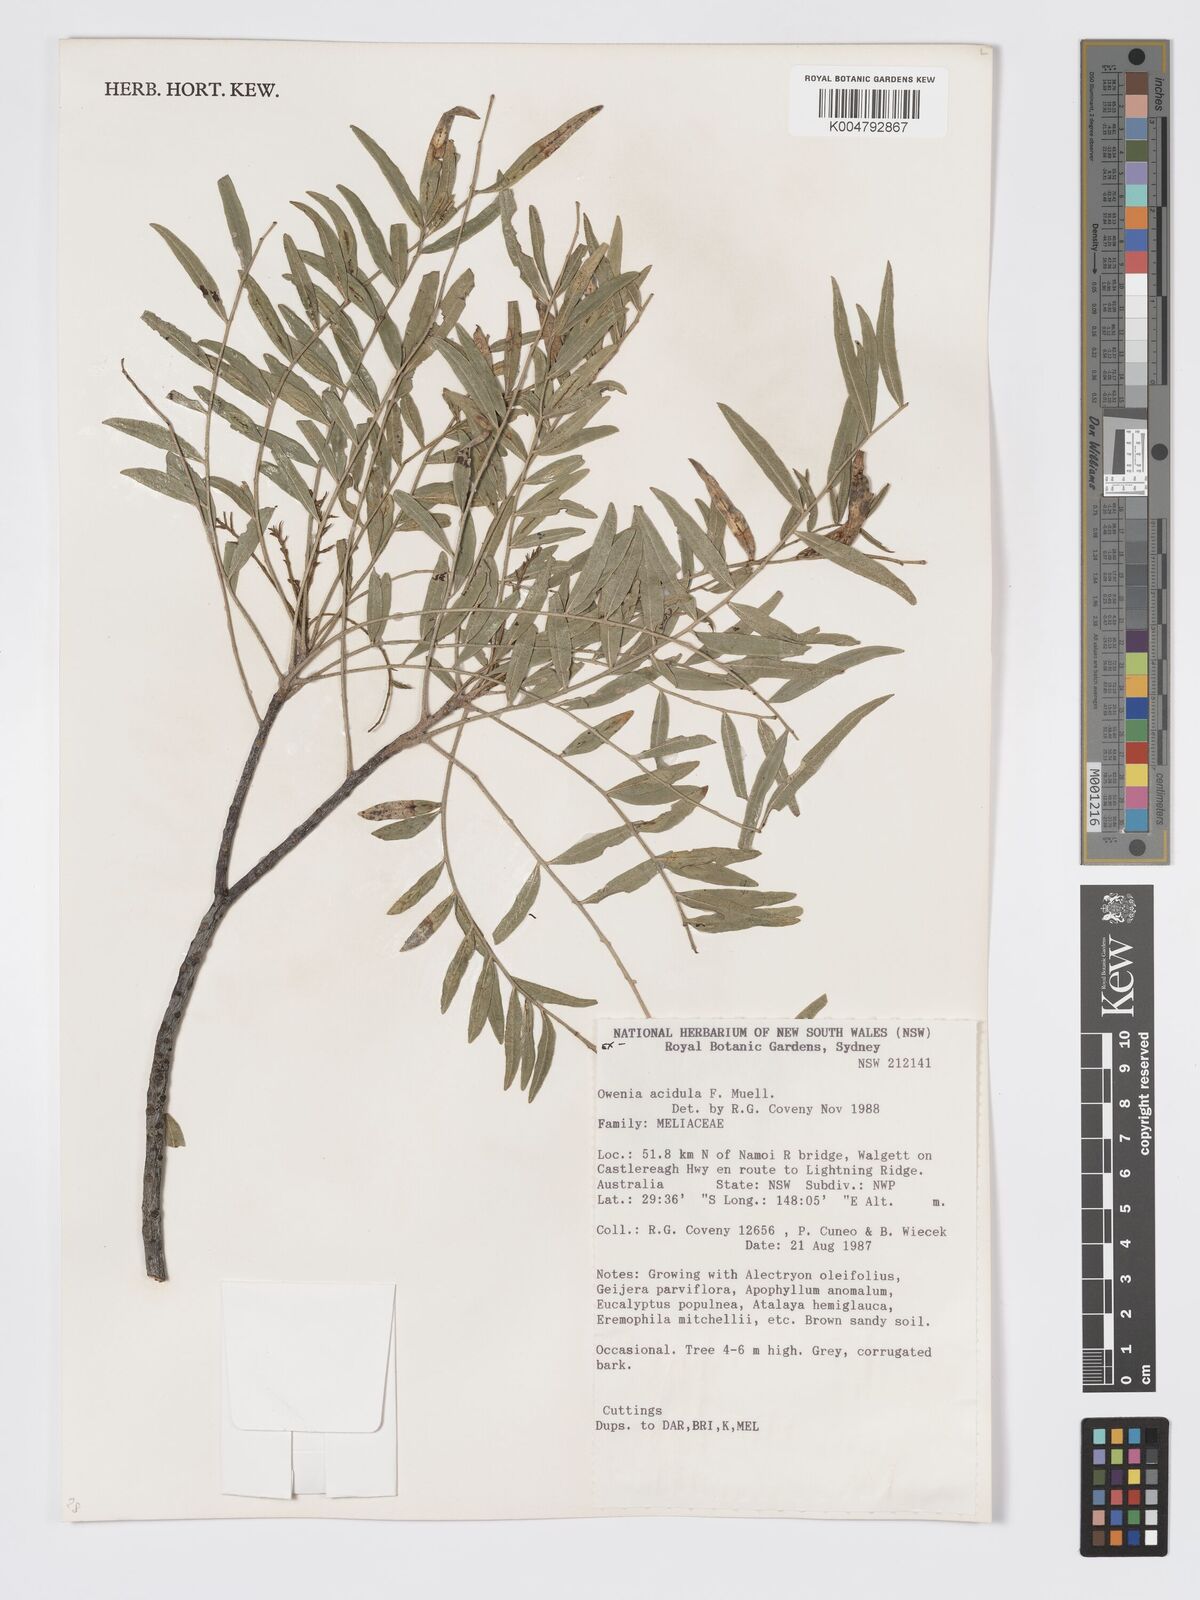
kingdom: Plantae
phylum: Tracheophyta
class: Magnoliopsida
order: Sapindales
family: Meliaceae
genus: Owenia
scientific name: Owenia acidula
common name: Tulipwood
